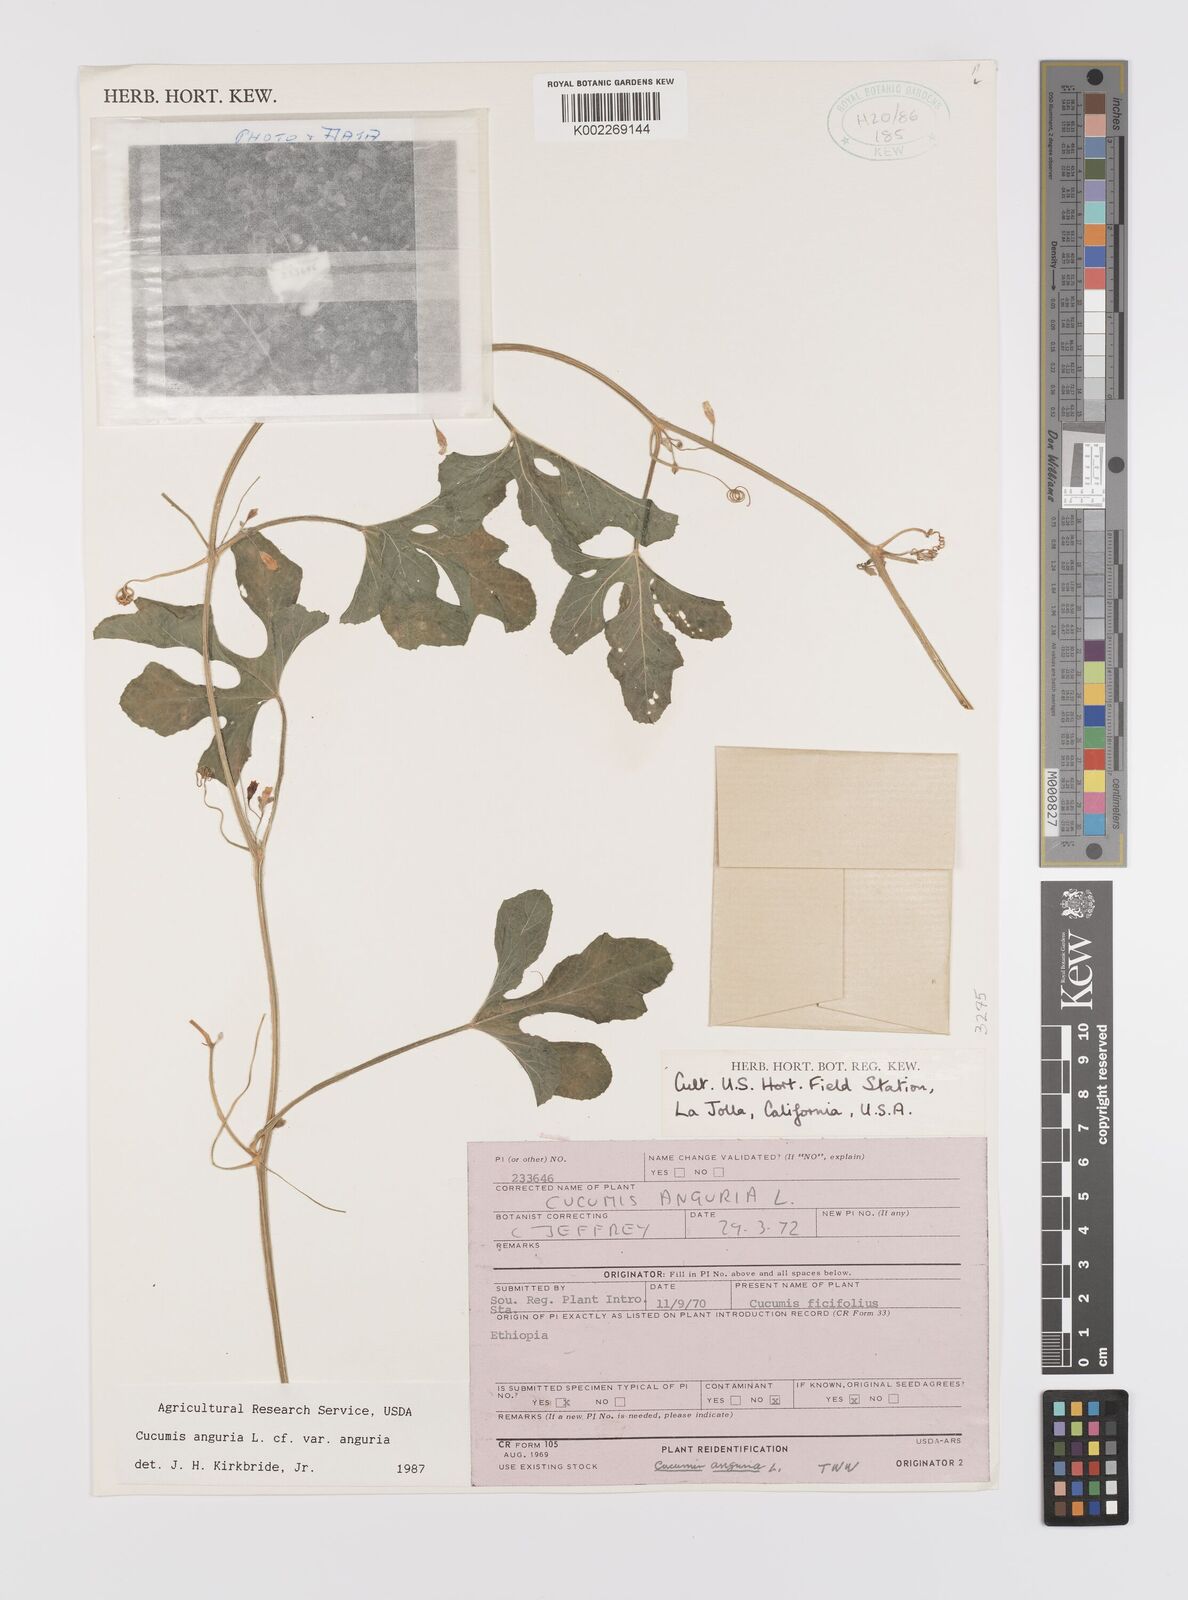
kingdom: Plantae
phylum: Tracheophyta
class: Magnoliopsida
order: Cucurbitales
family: Cucurbitaceae
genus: Cucumis
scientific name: Cucumis anguria
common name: West indian gherkin
